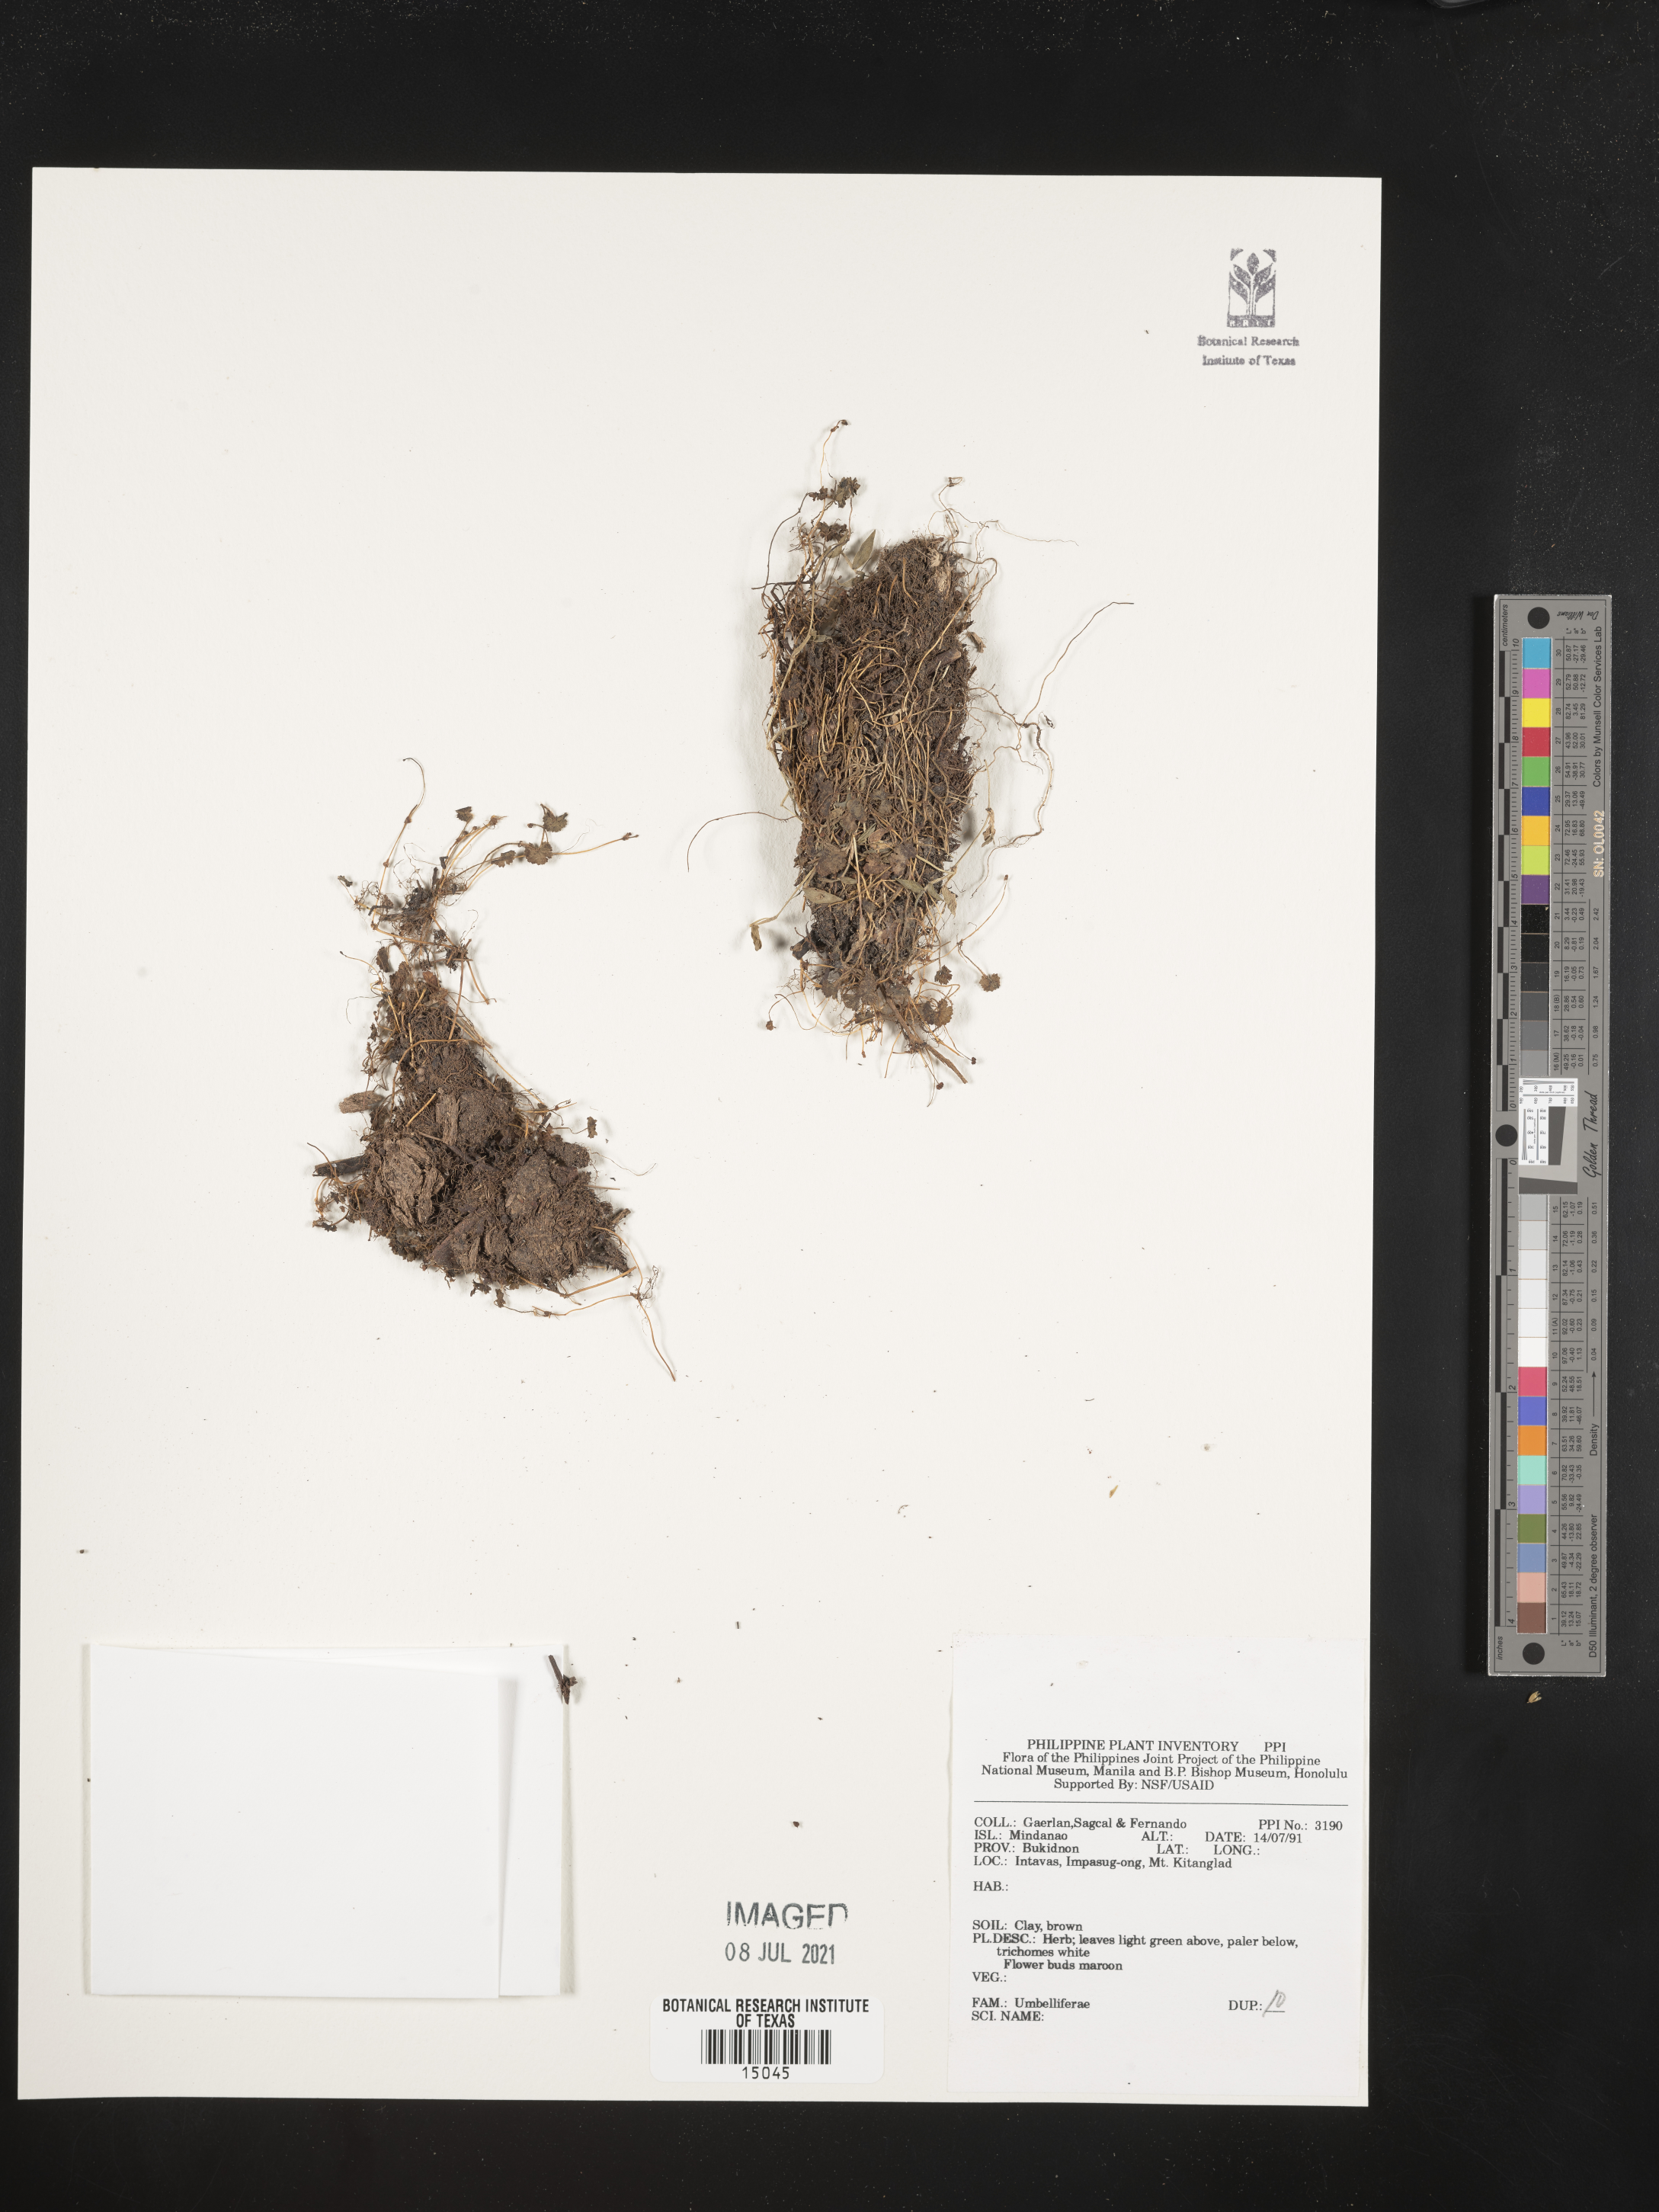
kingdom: Plantae
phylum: Tracheophyta
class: Magnoliopsida
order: Apiales
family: Apiaceae
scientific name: Apiaceae
